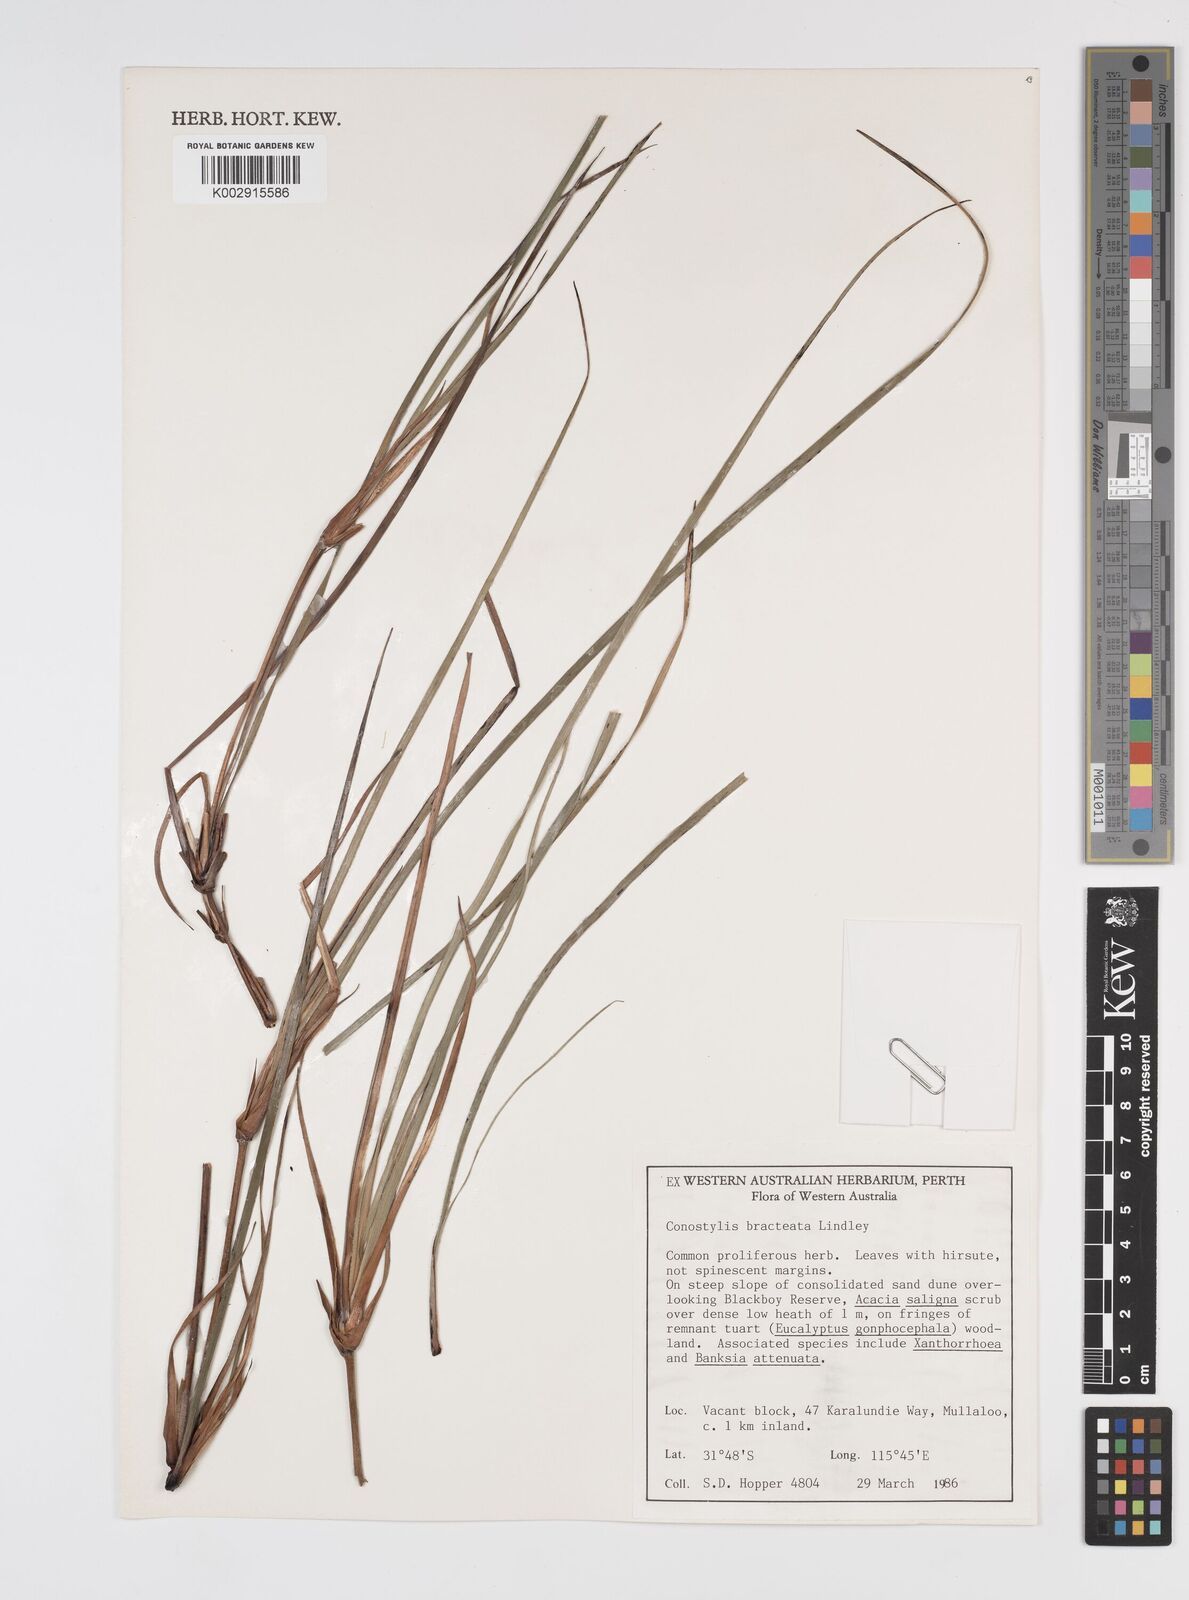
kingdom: Plantae
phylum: Tracheophyta
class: Liliopsida
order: Commelinales
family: Haemodoraceae
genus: Conostylis
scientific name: Conostylis bracteata
